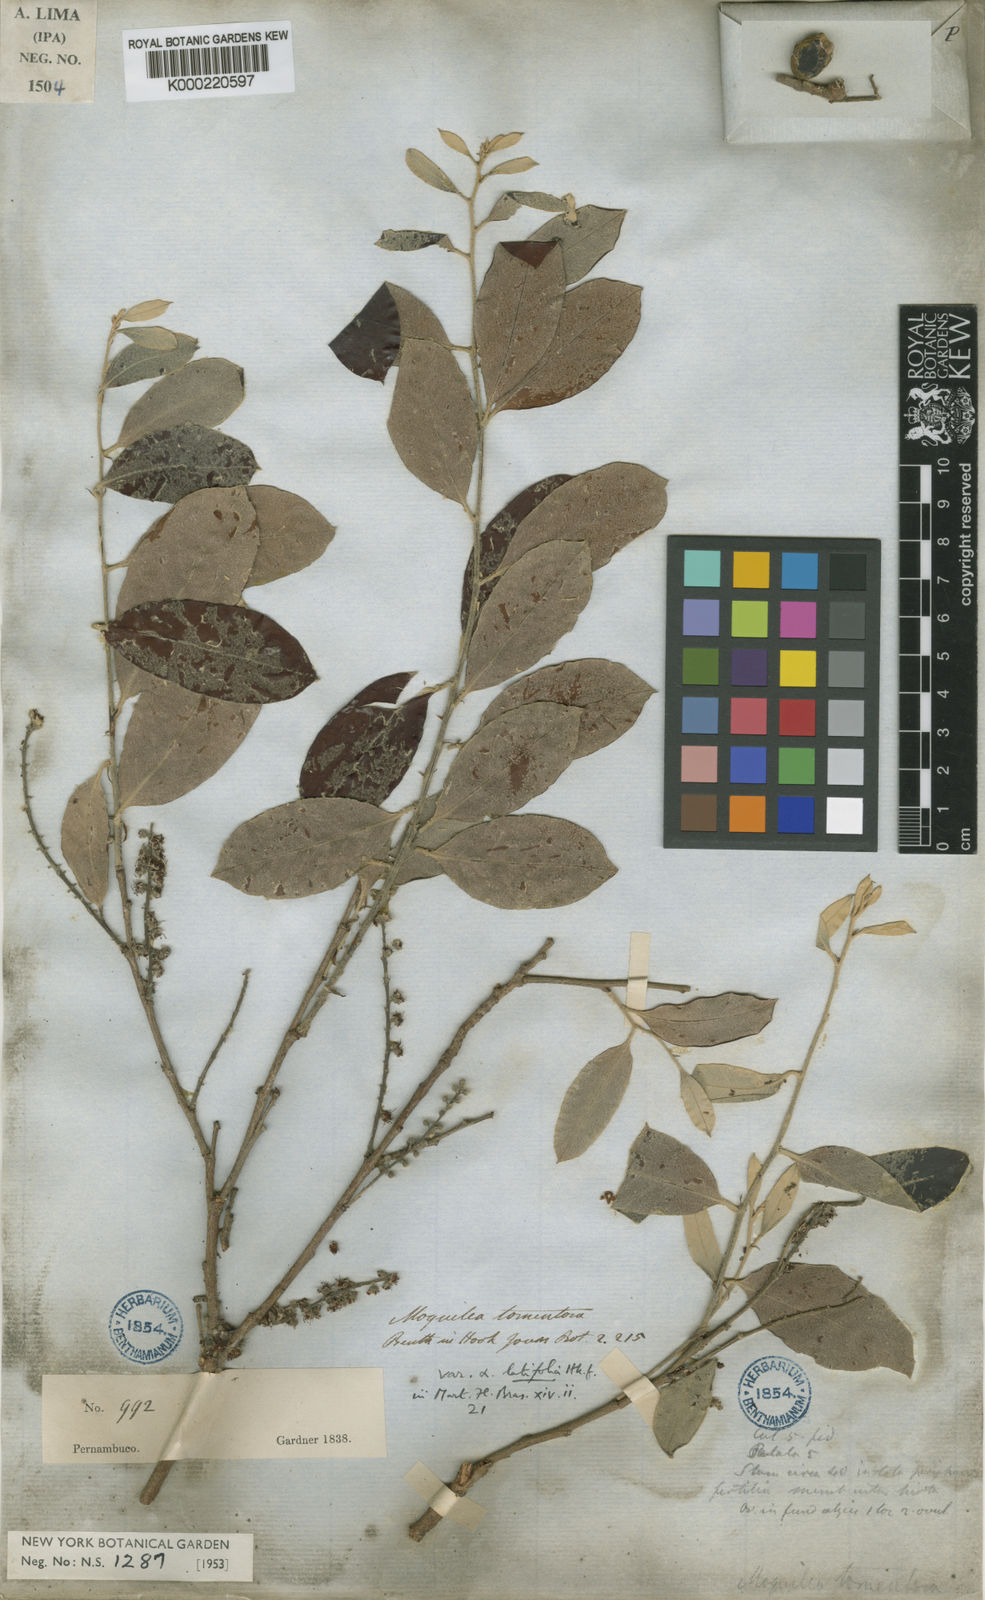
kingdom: Plantae
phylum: Tracheophyta
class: Magnoliopsida
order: Malpighiales
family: Chrysobalanaceae
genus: Moquilea
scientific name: Moquilea tomentosa
